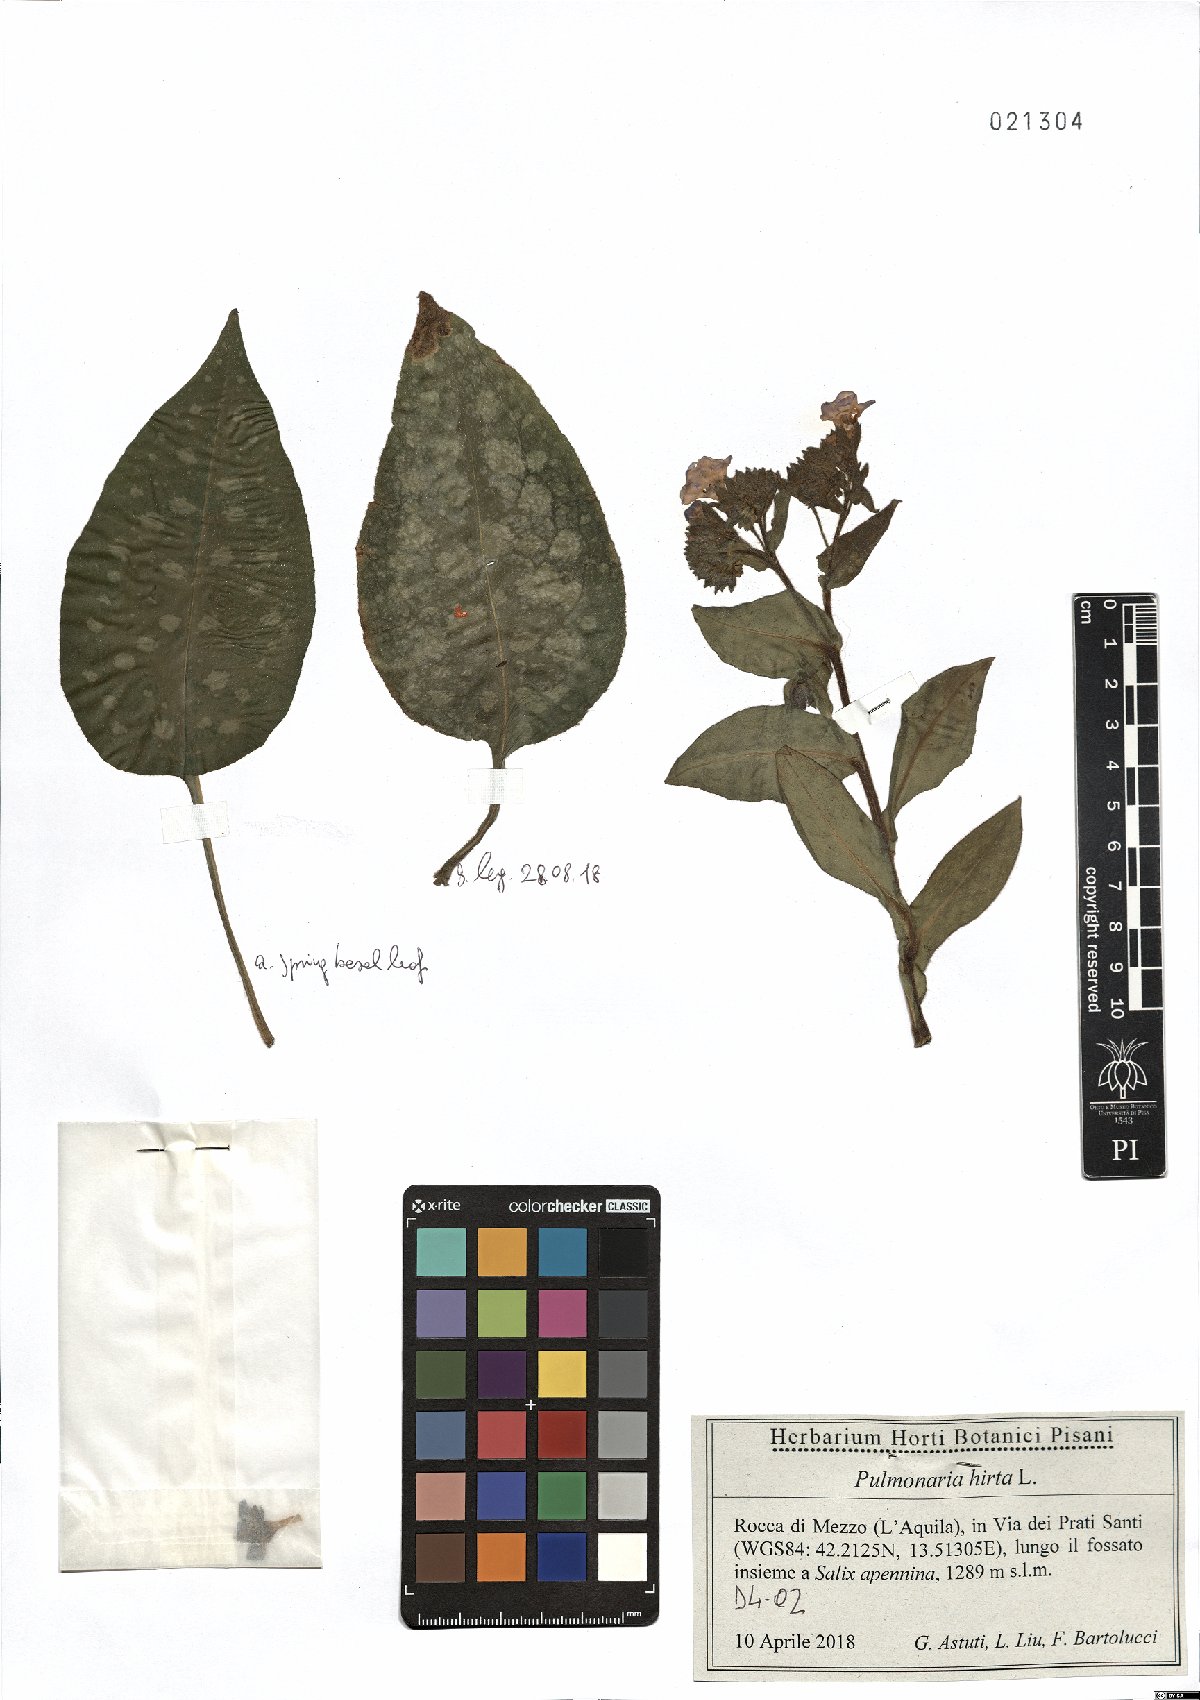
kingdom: Plantae
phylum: Tracheophyta
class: Magnoliopsida
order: Boraginales
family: Boraginaceae
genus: Pulmonaria
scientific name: Pulmonaria hirta
